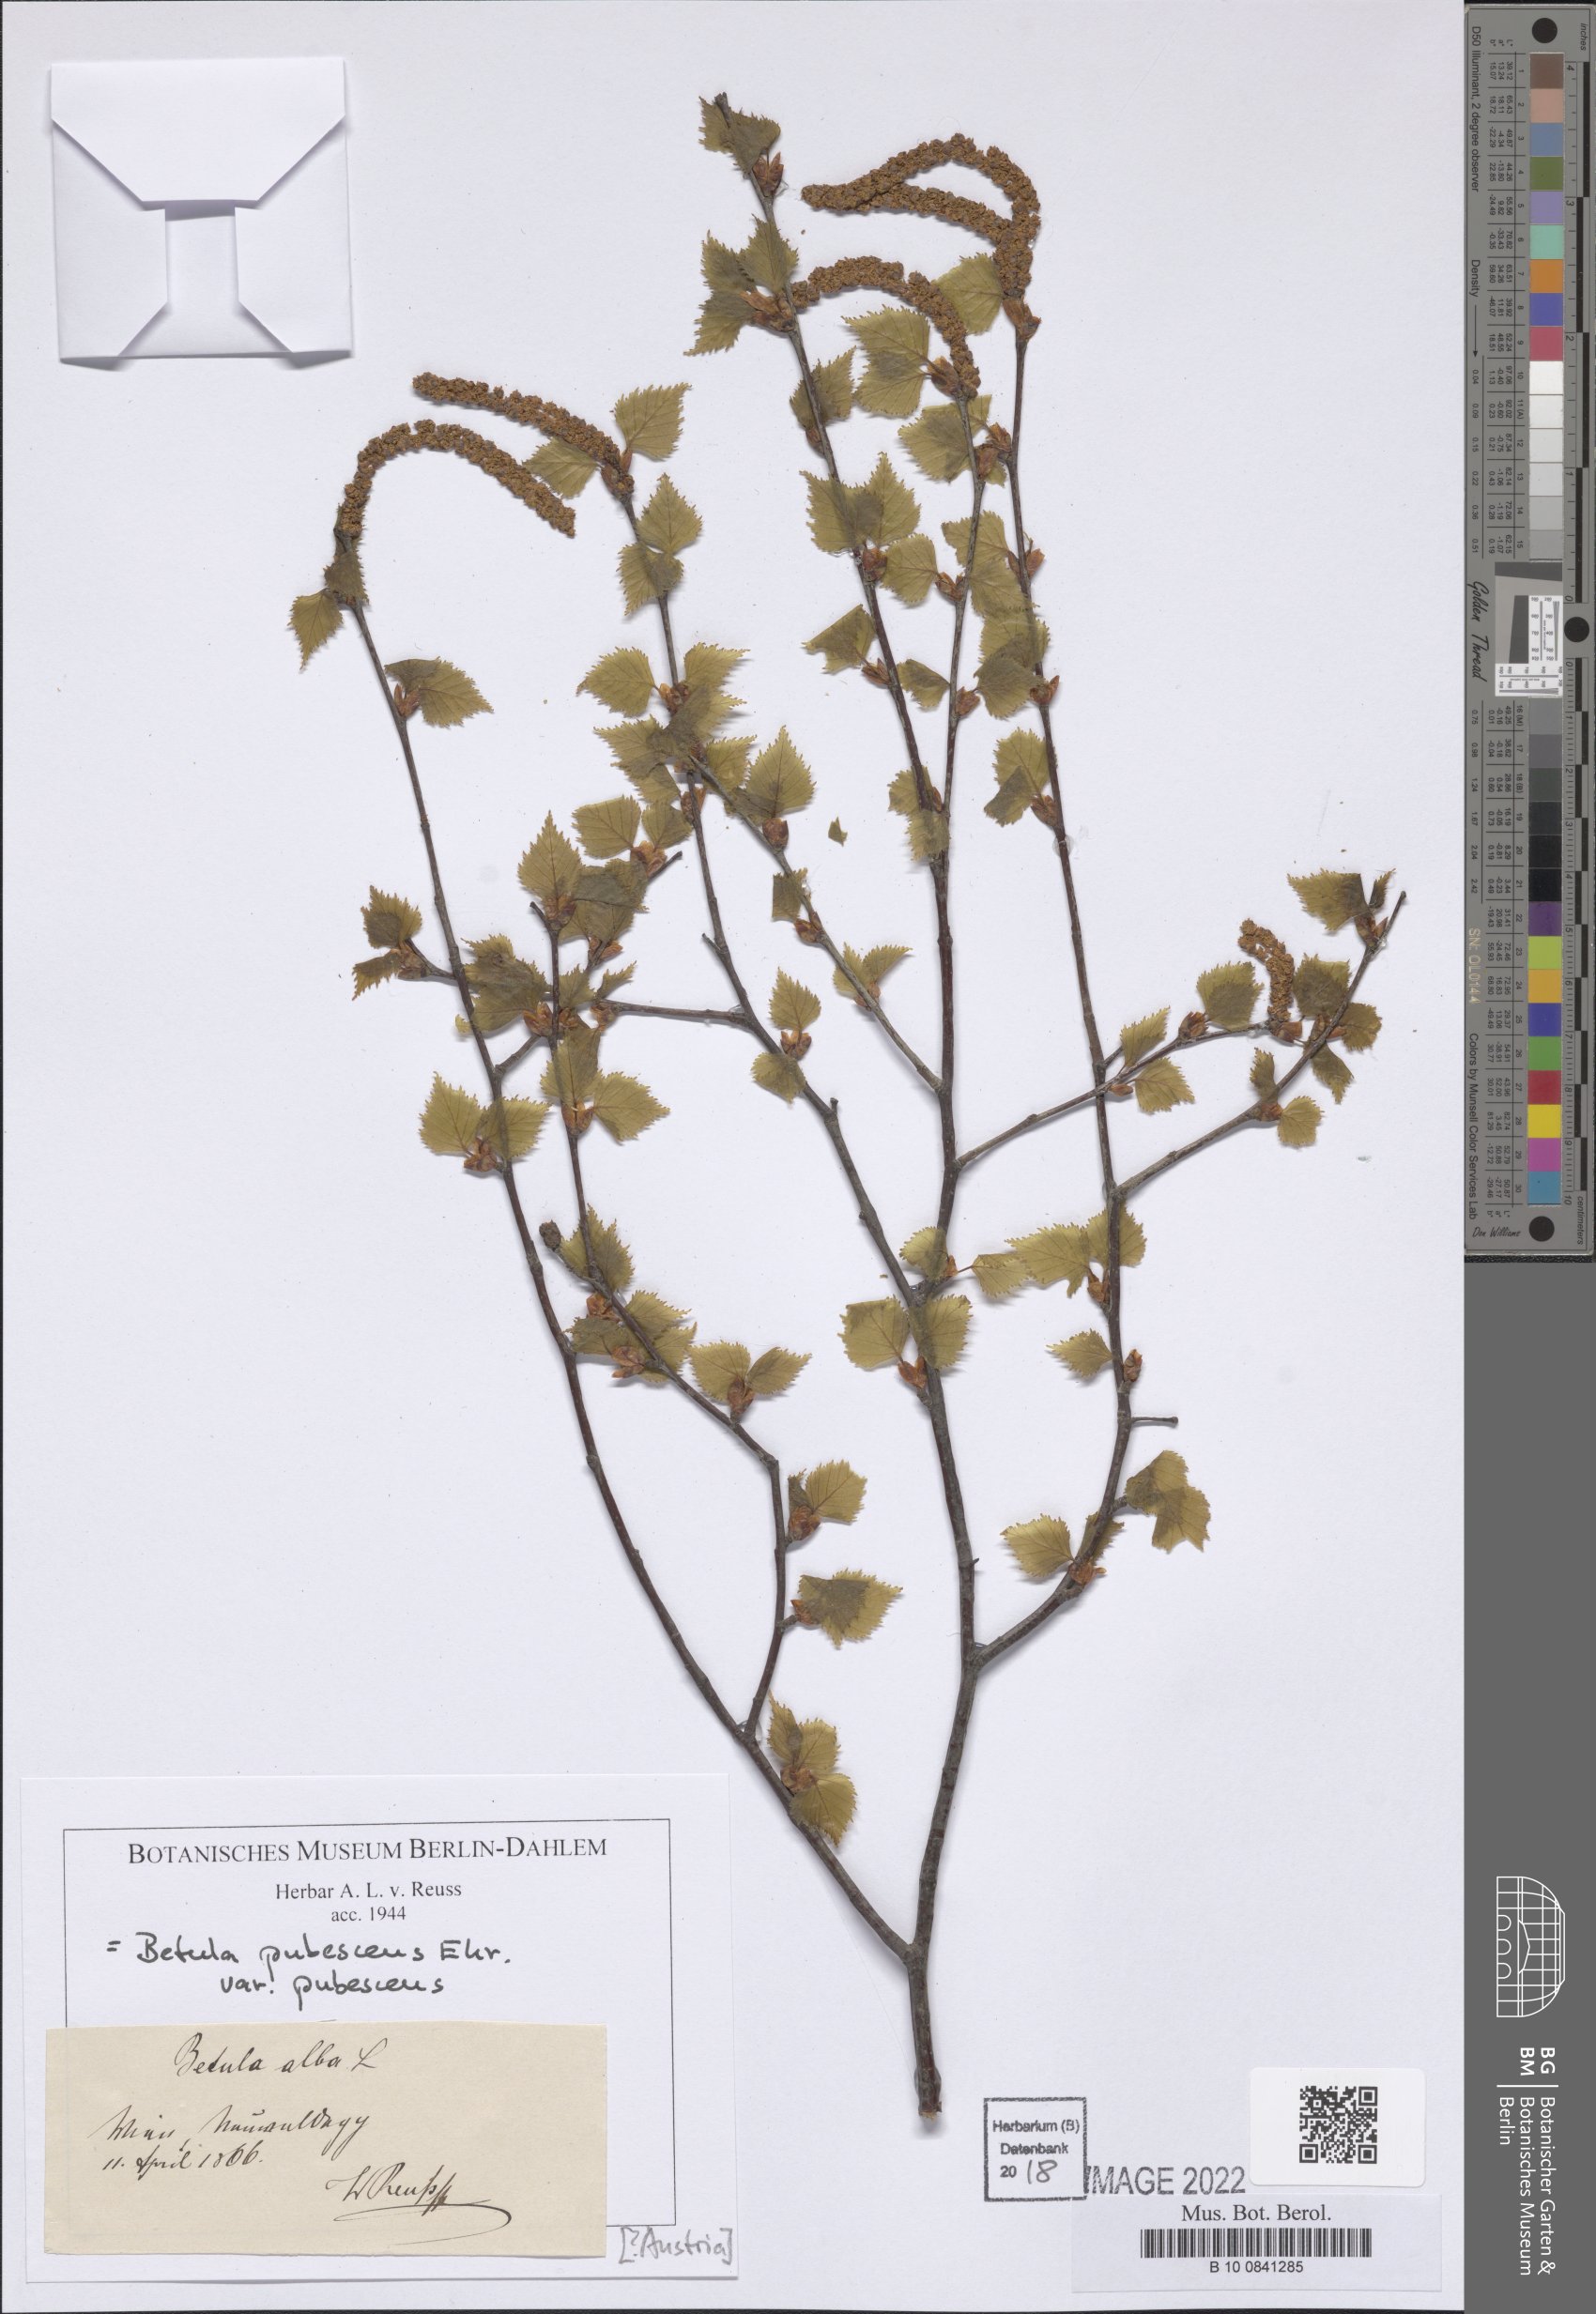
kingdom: Plantae
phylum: Tracheophyta
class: Magnoliopsida
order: Fagales
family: Betulaceae
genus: Betula
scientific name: Betula pubescens
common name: Downy birch
